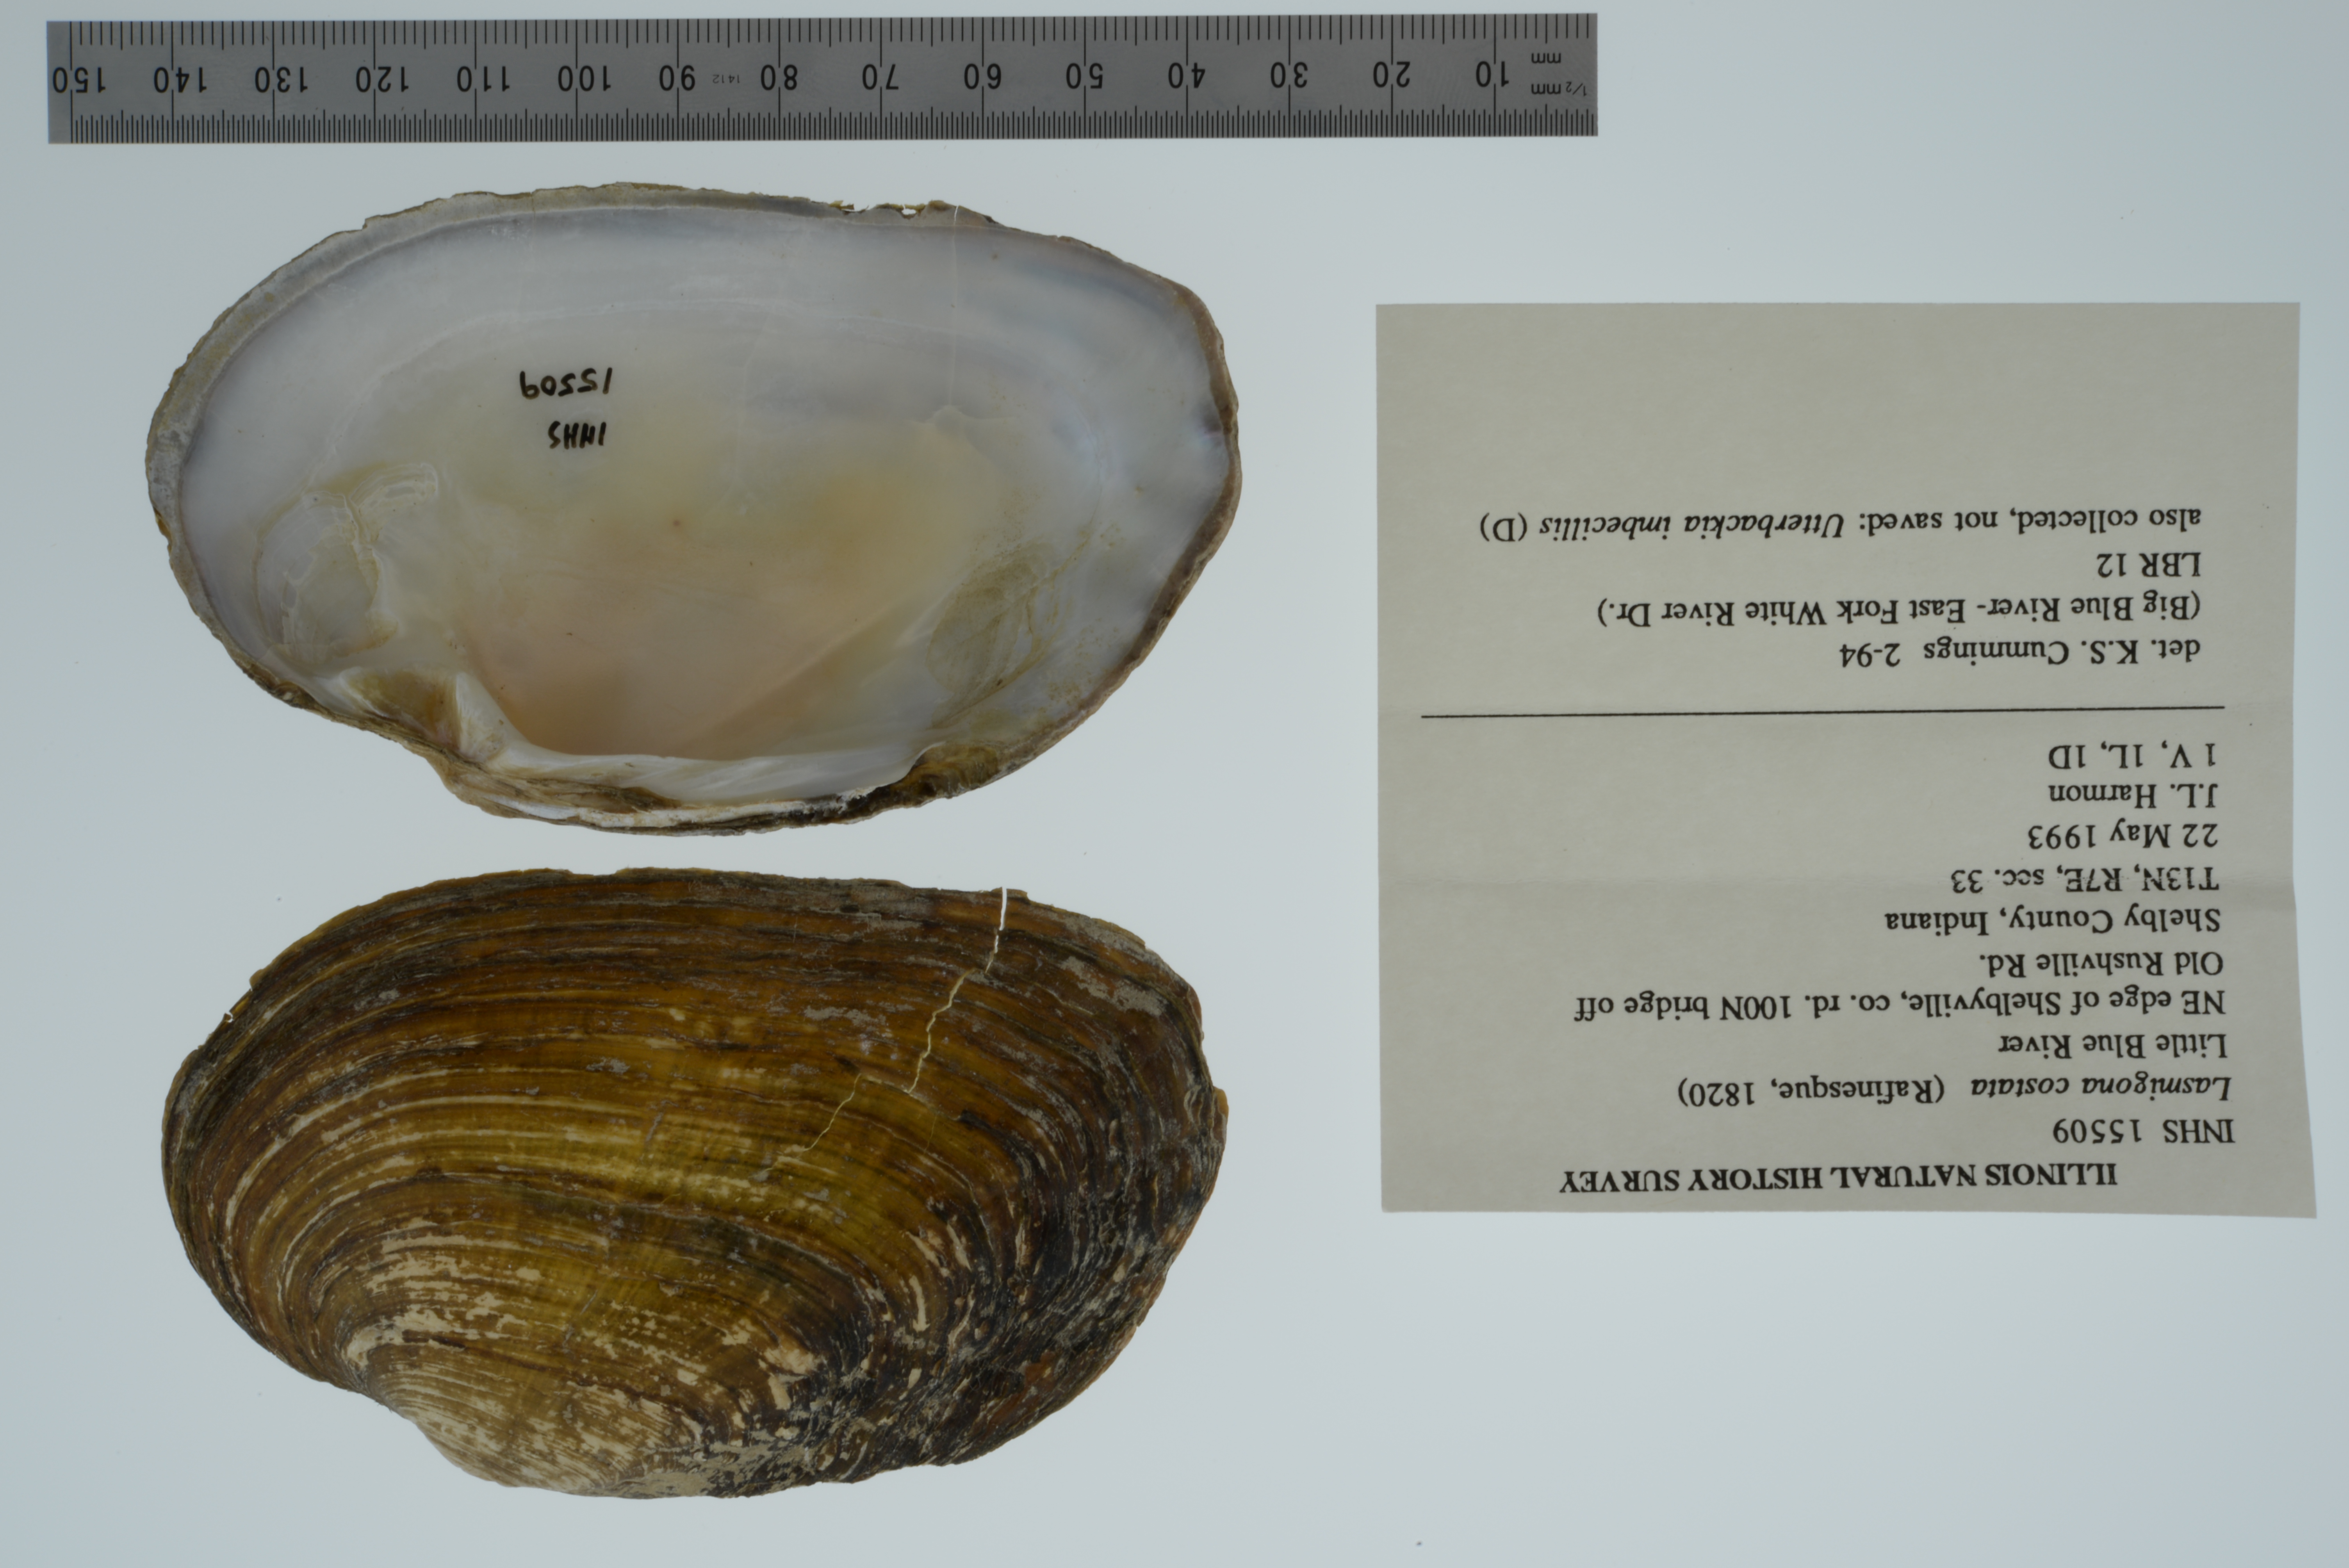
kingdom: Animalia
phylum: Mollusca
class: Bivalvia
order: Unionida
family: Unionidae
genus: Lasmigona
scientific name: Lasmigona costata
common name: Flutedshell
